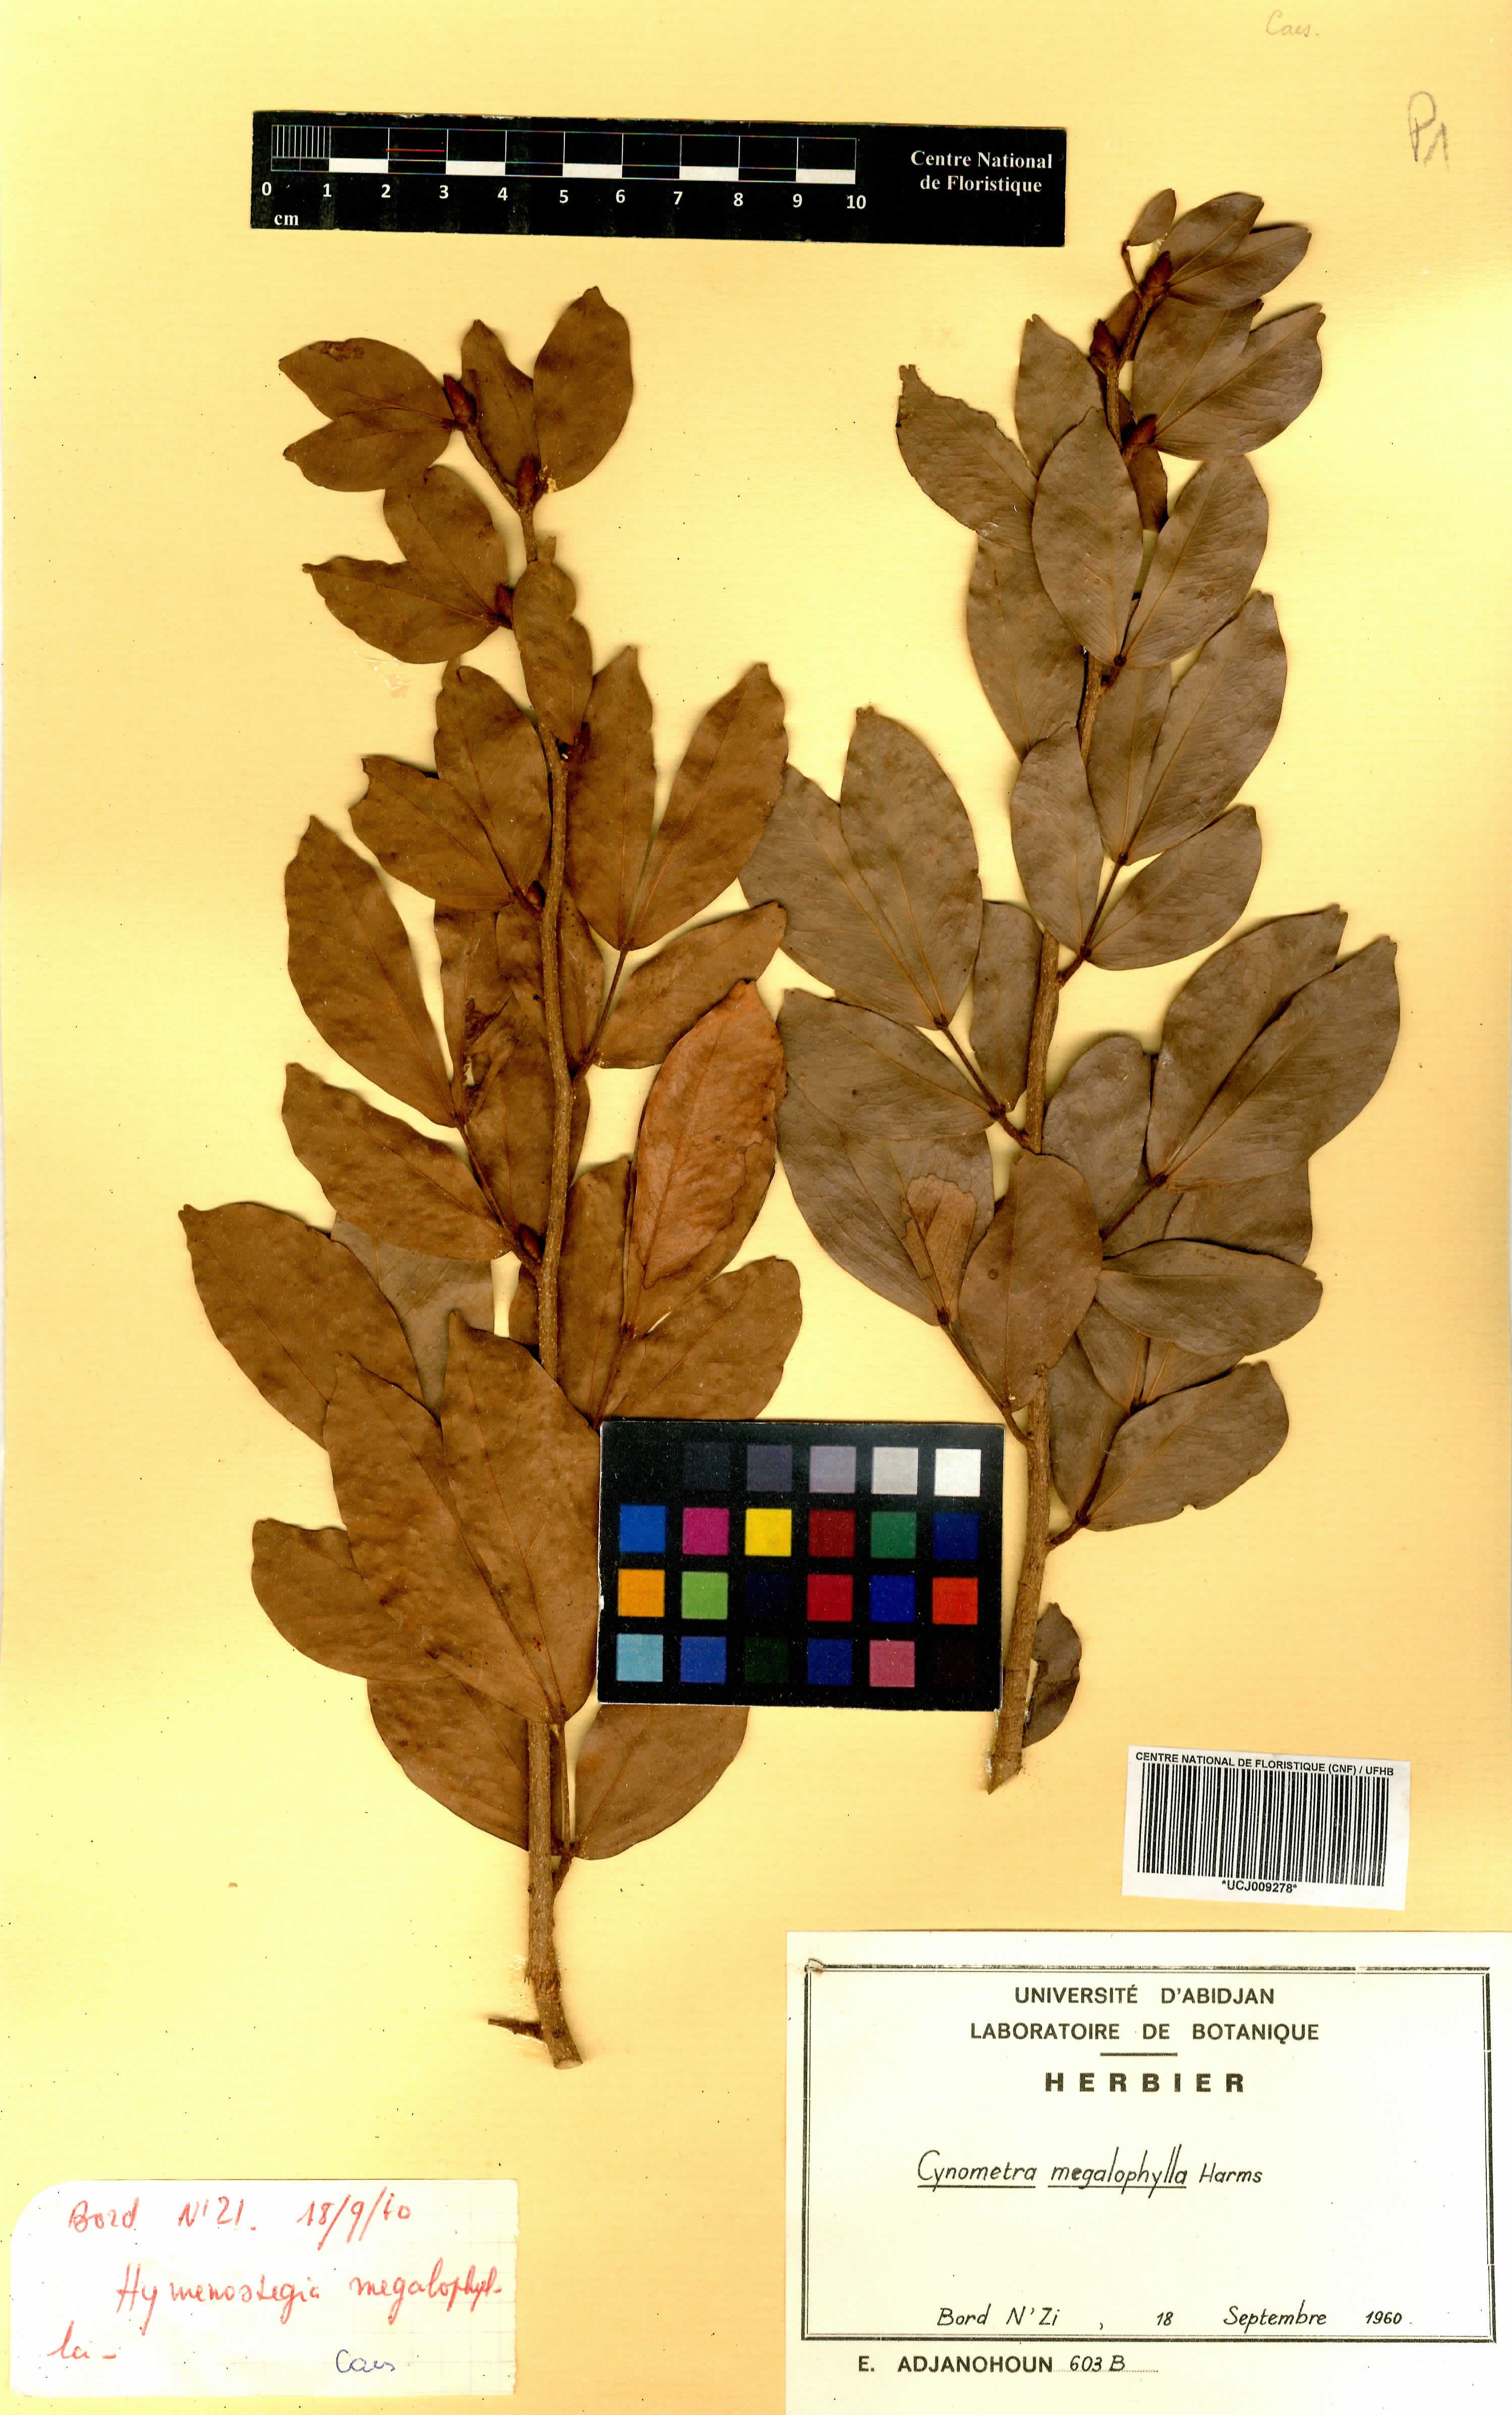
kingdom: Plantae
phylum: Tracheophyta
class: Magnoliopsida
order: Fabales
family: Fabaceae
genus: Cynometra
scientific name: Cynometra megalophylla
